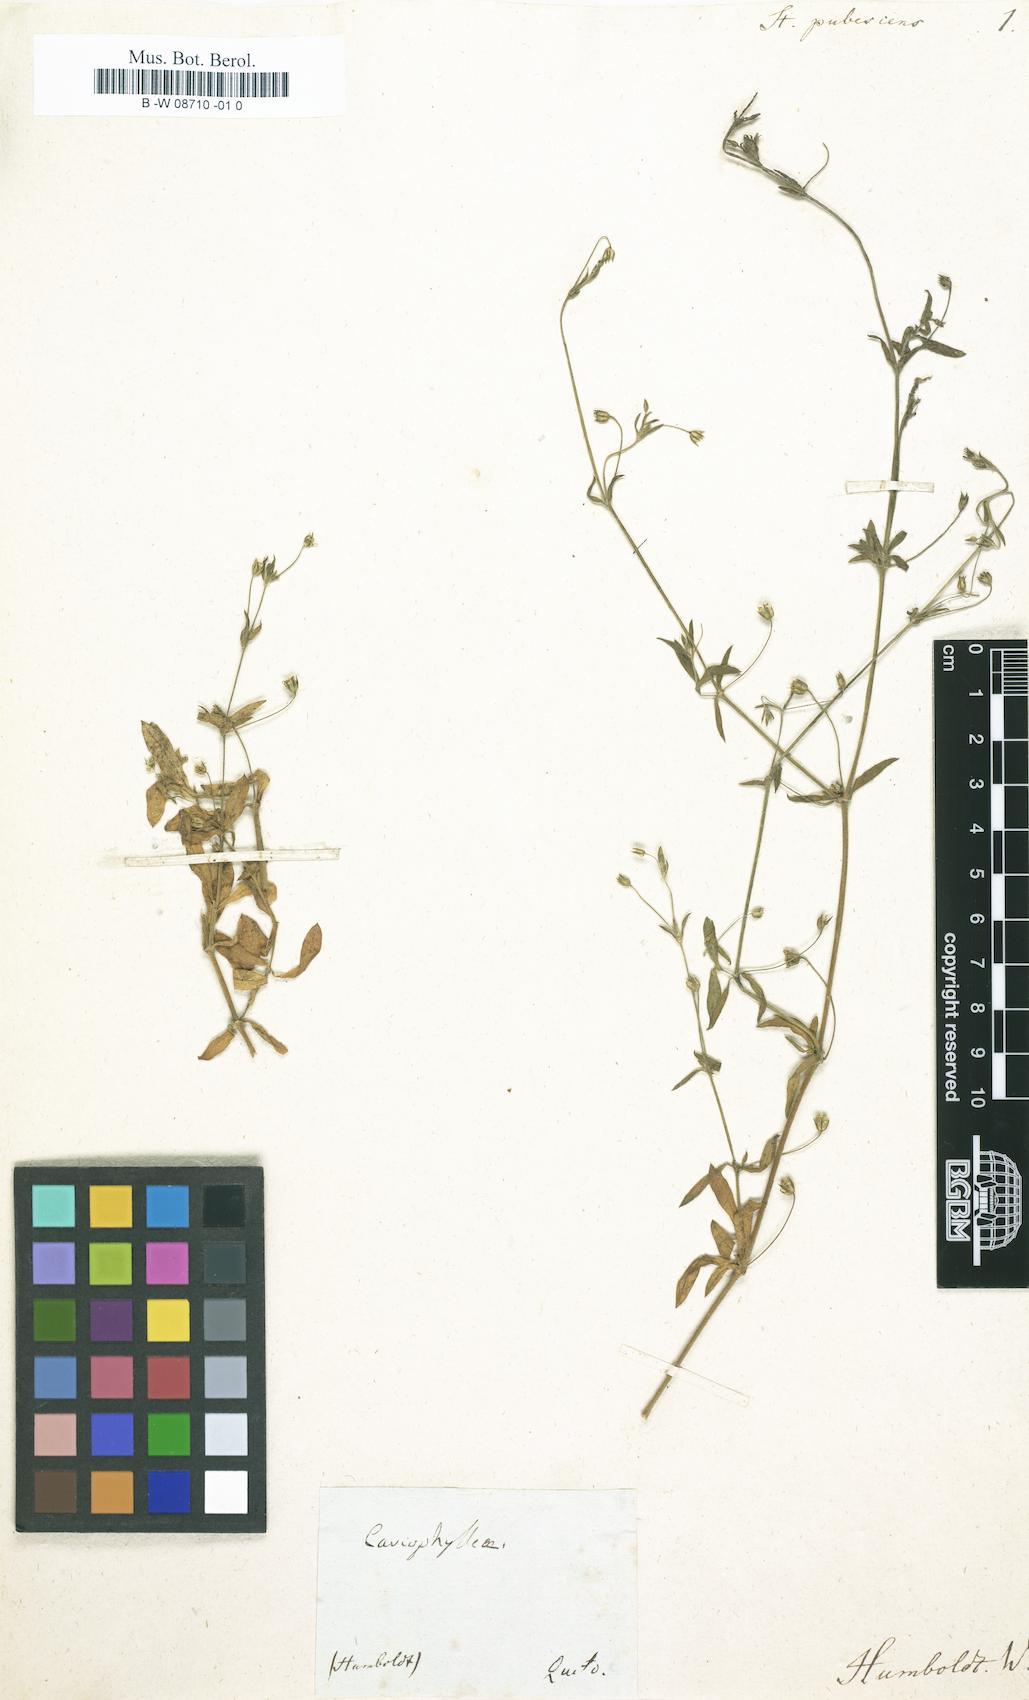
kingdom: Plantae
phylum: Tracheophyta
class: Magnoliopsida
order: Caryophyllales
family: Caryophyllaceae
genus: Arenaria
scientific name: Arenaria lanuginosa
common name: Spread sandwort
